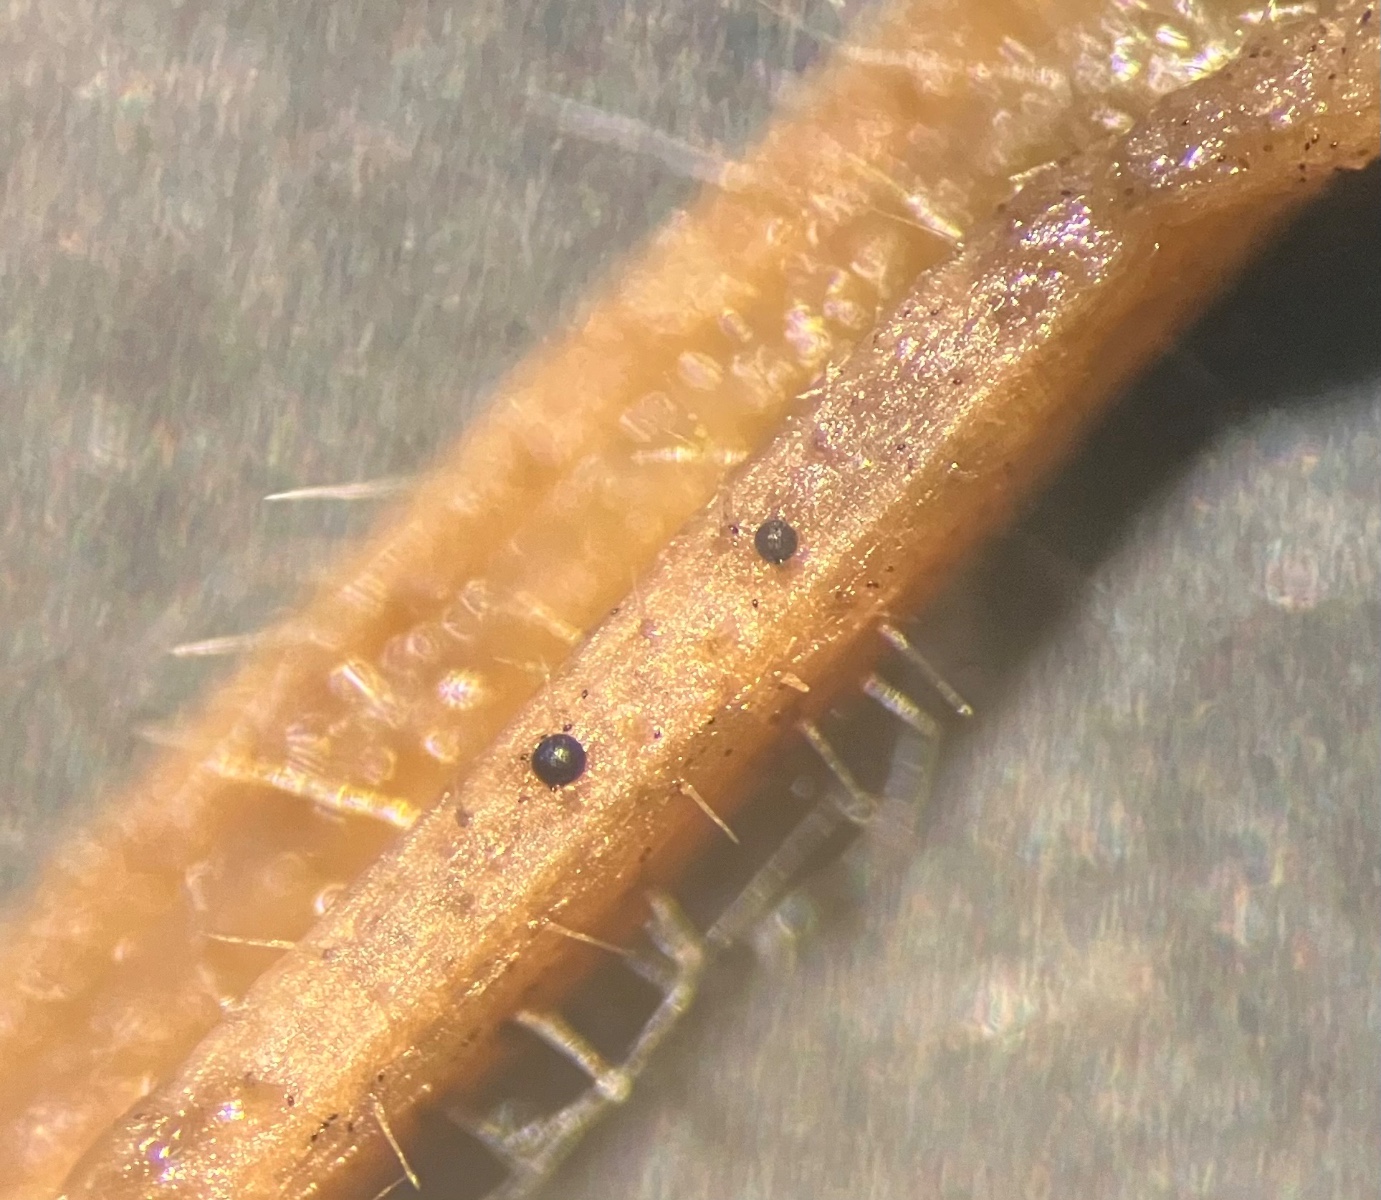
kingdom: Fungi
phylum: Mucoromycota
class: Mucoromycetes
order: Mucorales
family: Pilobolaceae
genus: Pilobolus
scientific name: Pilobolus crystallinus
